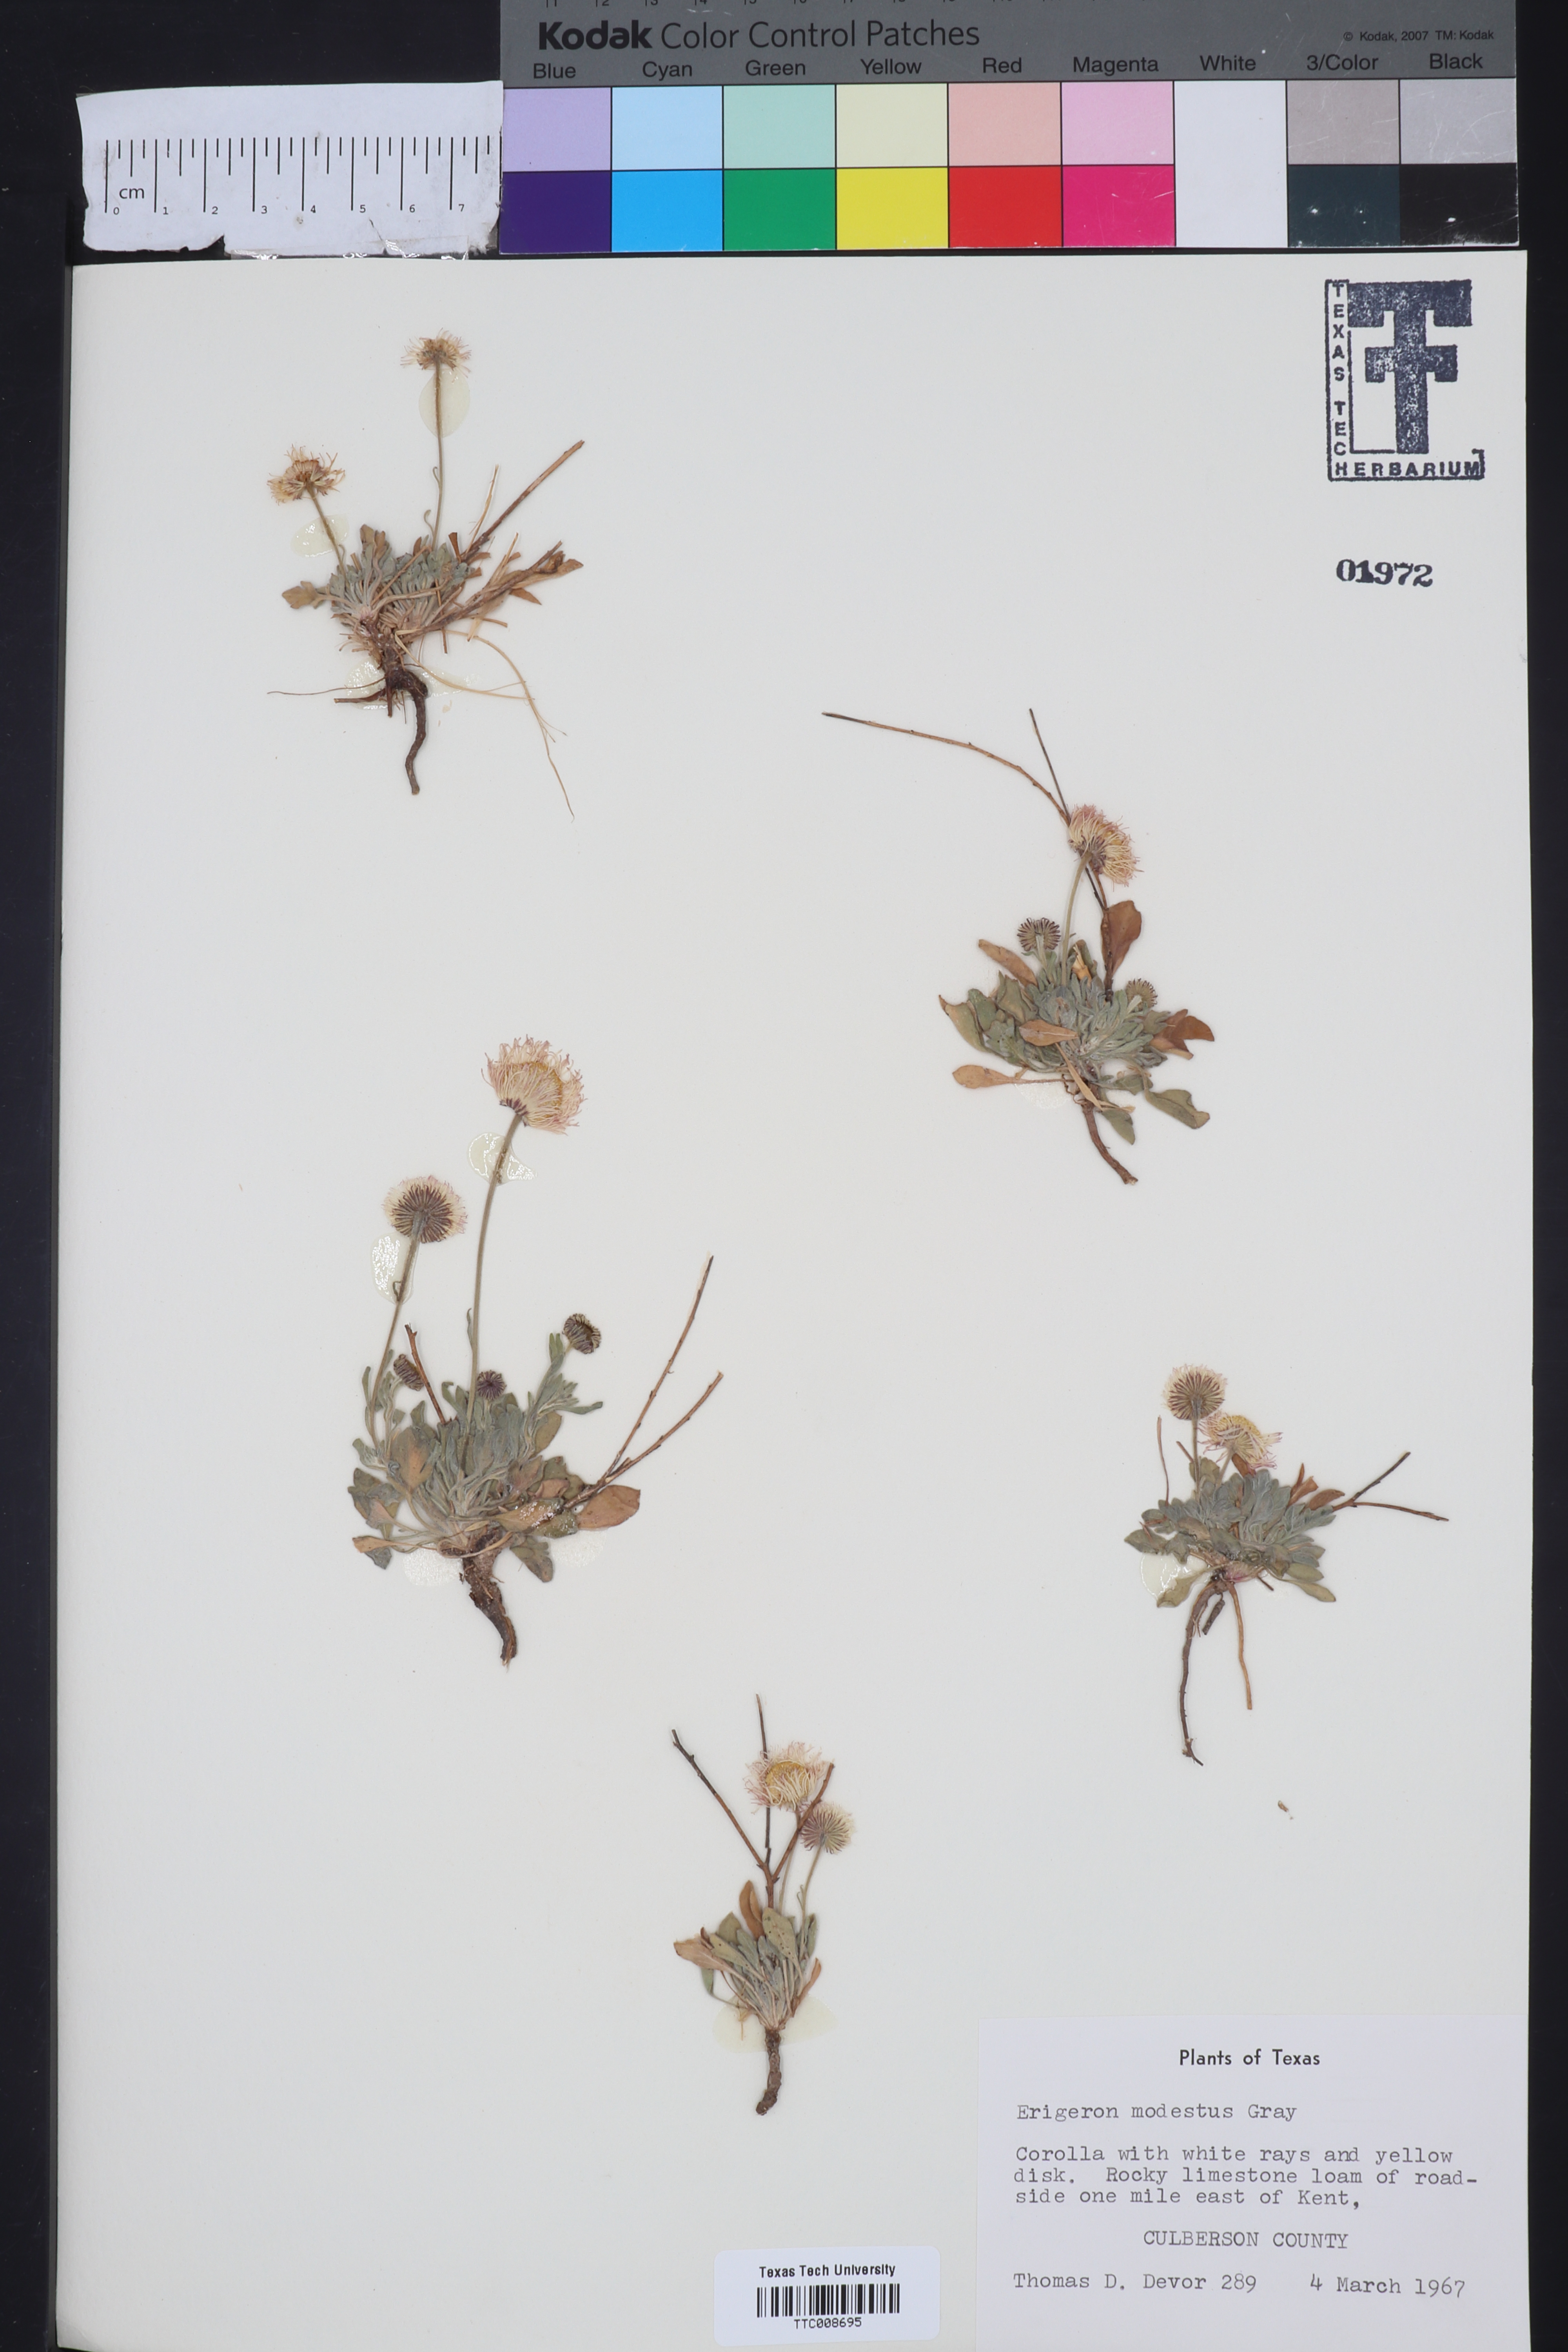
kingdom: Plantae
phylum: Tracheophyta
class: Magnoliopsida
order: Asterales
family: Asteraceae
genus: Erigeron
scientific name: Erigeron modestus
